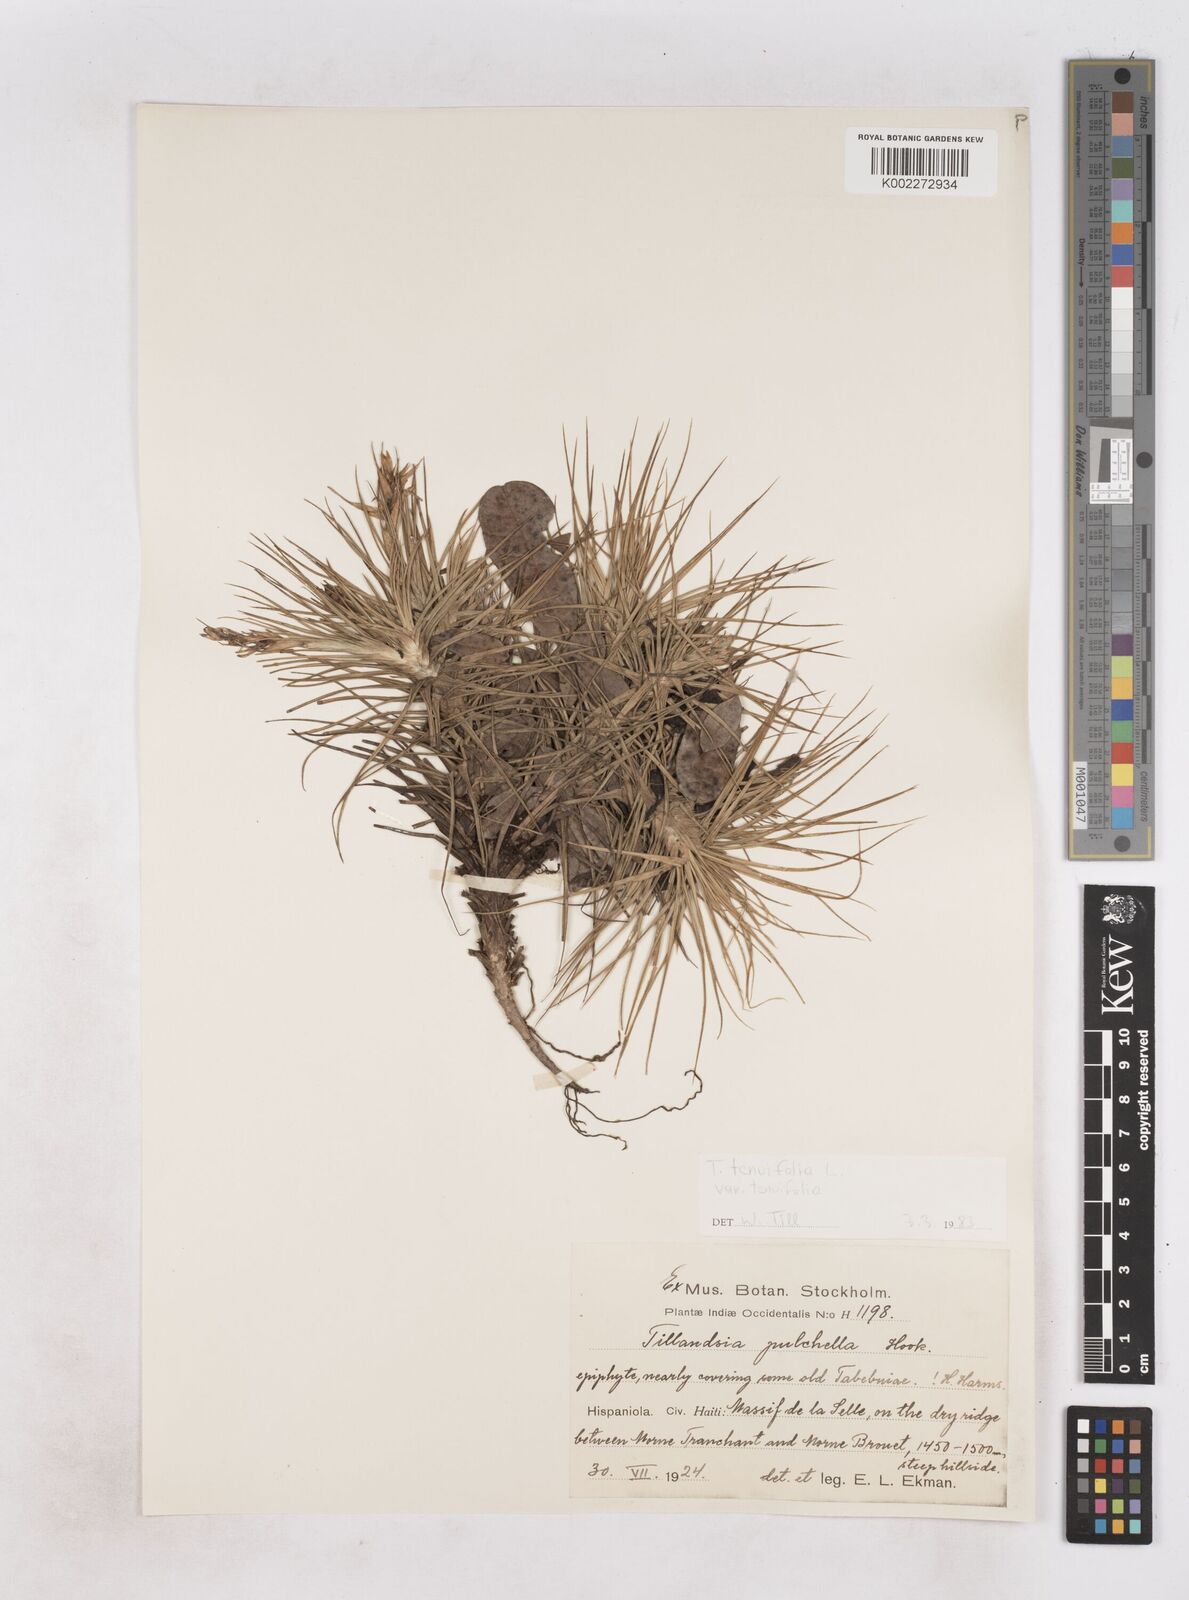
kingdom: Plantae
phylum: Tracheophyta
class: Liliopsida
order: Poales
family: Bromeliaceae
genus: Tillandsia
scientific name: Tillandsia tenuifolia
